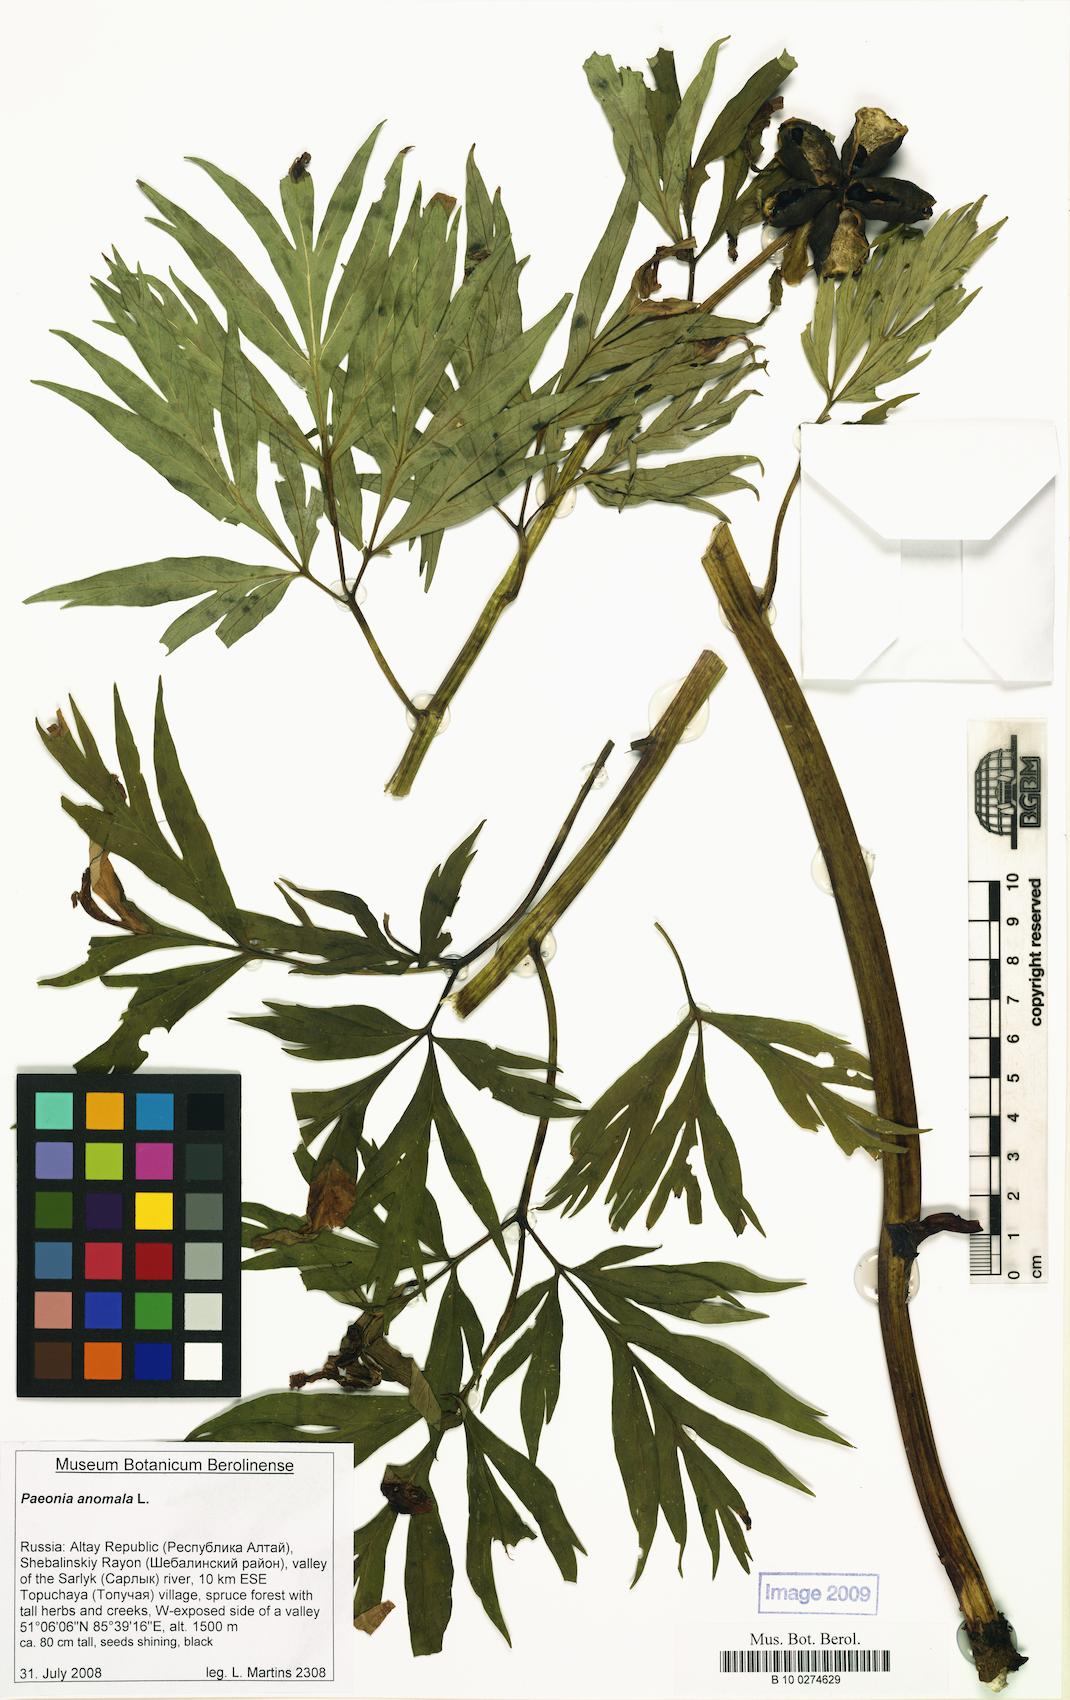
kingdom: Plantae
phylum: Tracheophyta
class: Magnoliopsida
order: Saxifragales
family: Paeoniaceae
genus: Paeonia
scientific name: Paeonia anomala
